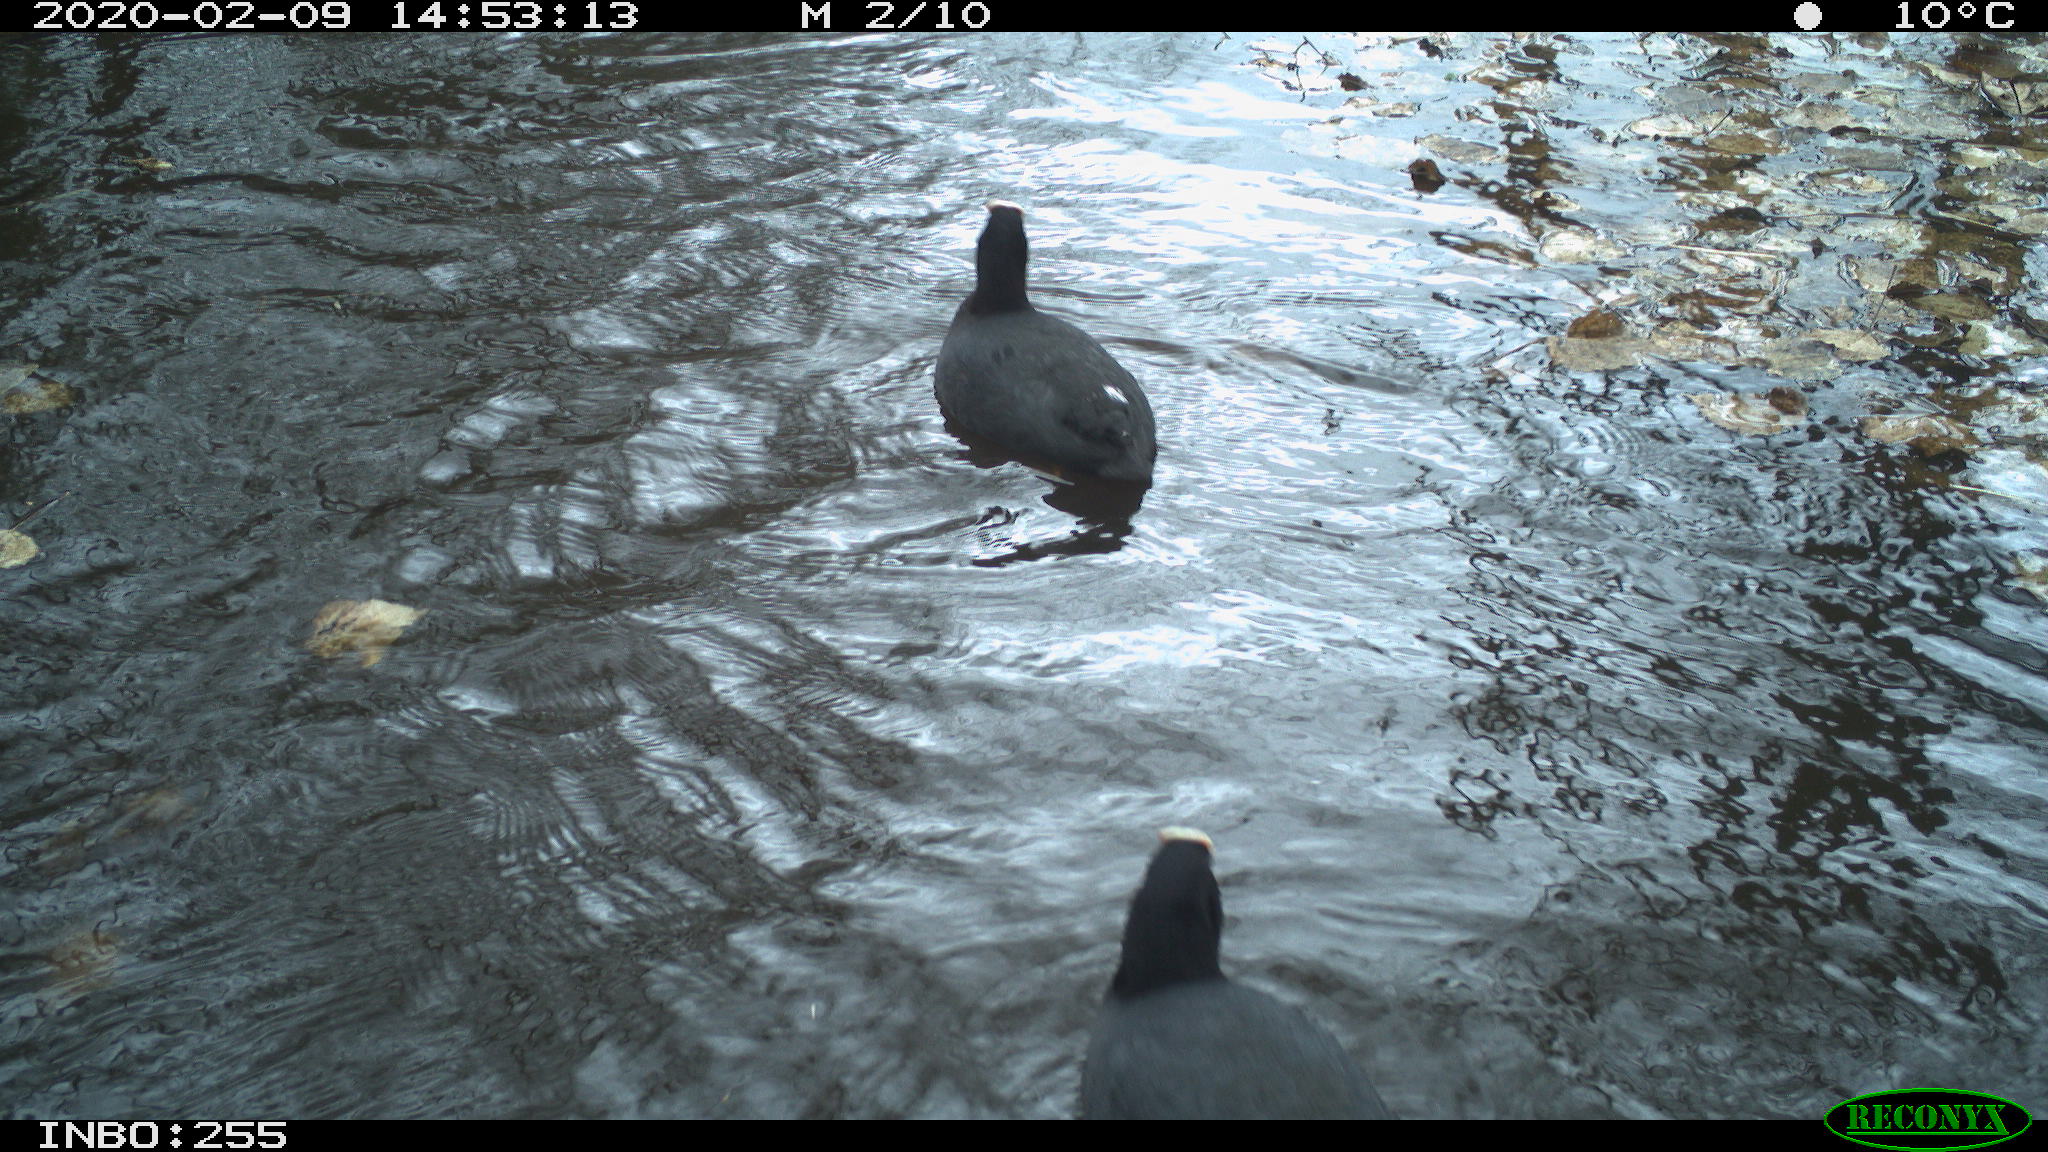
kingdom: Animalia
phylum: Chordata
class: Aves
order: Gruiformes
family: Rallidae
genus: Fulica
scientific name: Fulica atra
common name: Eurasian coot
